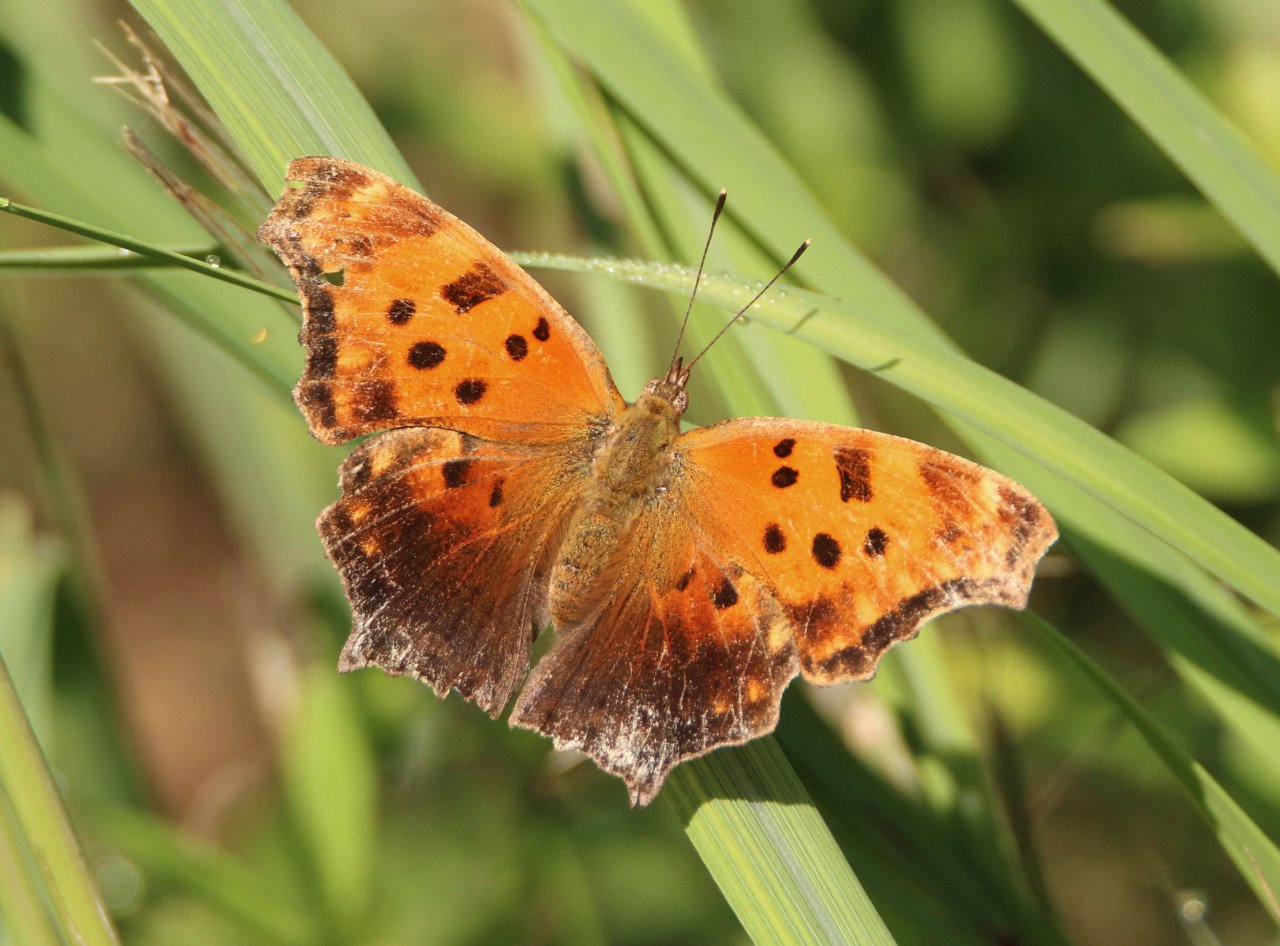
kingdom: Animalia
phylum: Arthropoda
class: Insecta
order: Lepidoptera
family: Nymphalidae
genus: Polygonia
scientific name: Polygonia comma
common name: Eastern Comma
